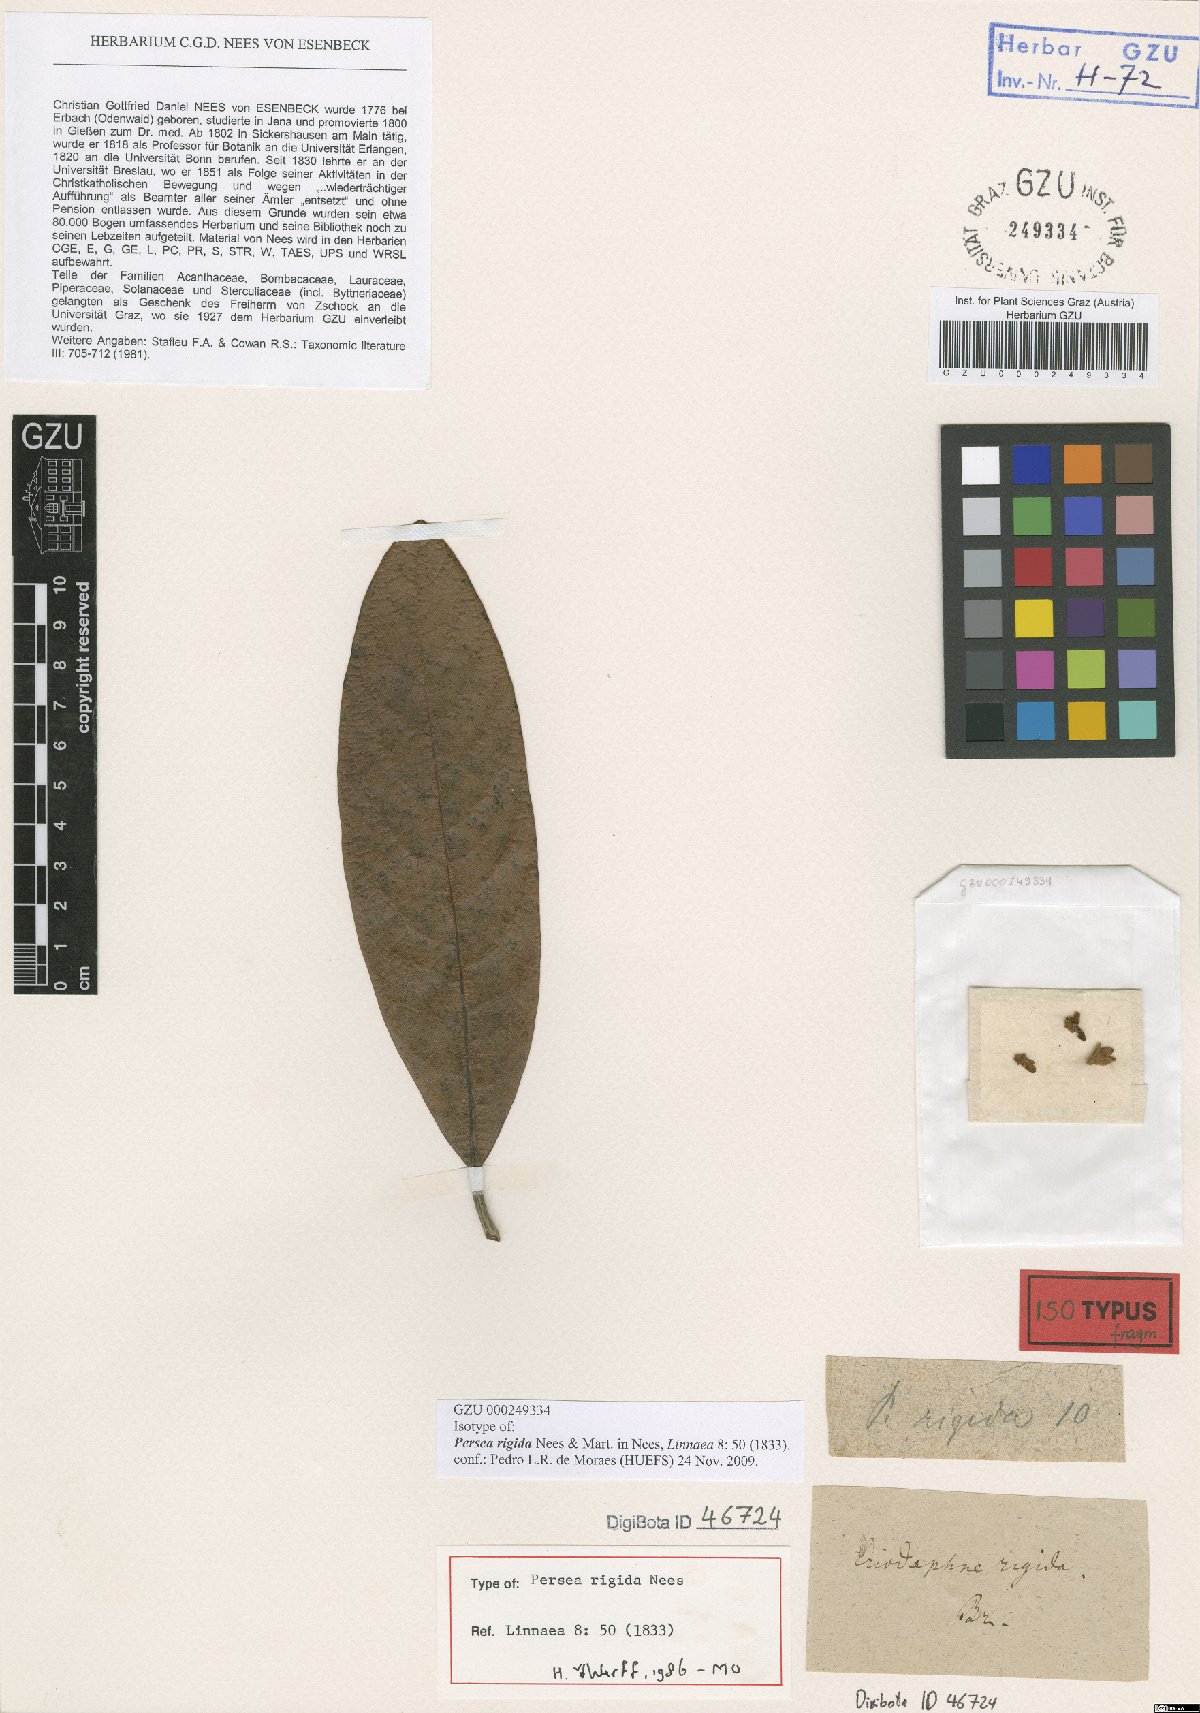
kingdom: Plantae
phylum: Tracheophyta
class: Magnoliopsida
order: Laurales
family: Lauraceae
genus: Persea
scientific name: Persea rigida
